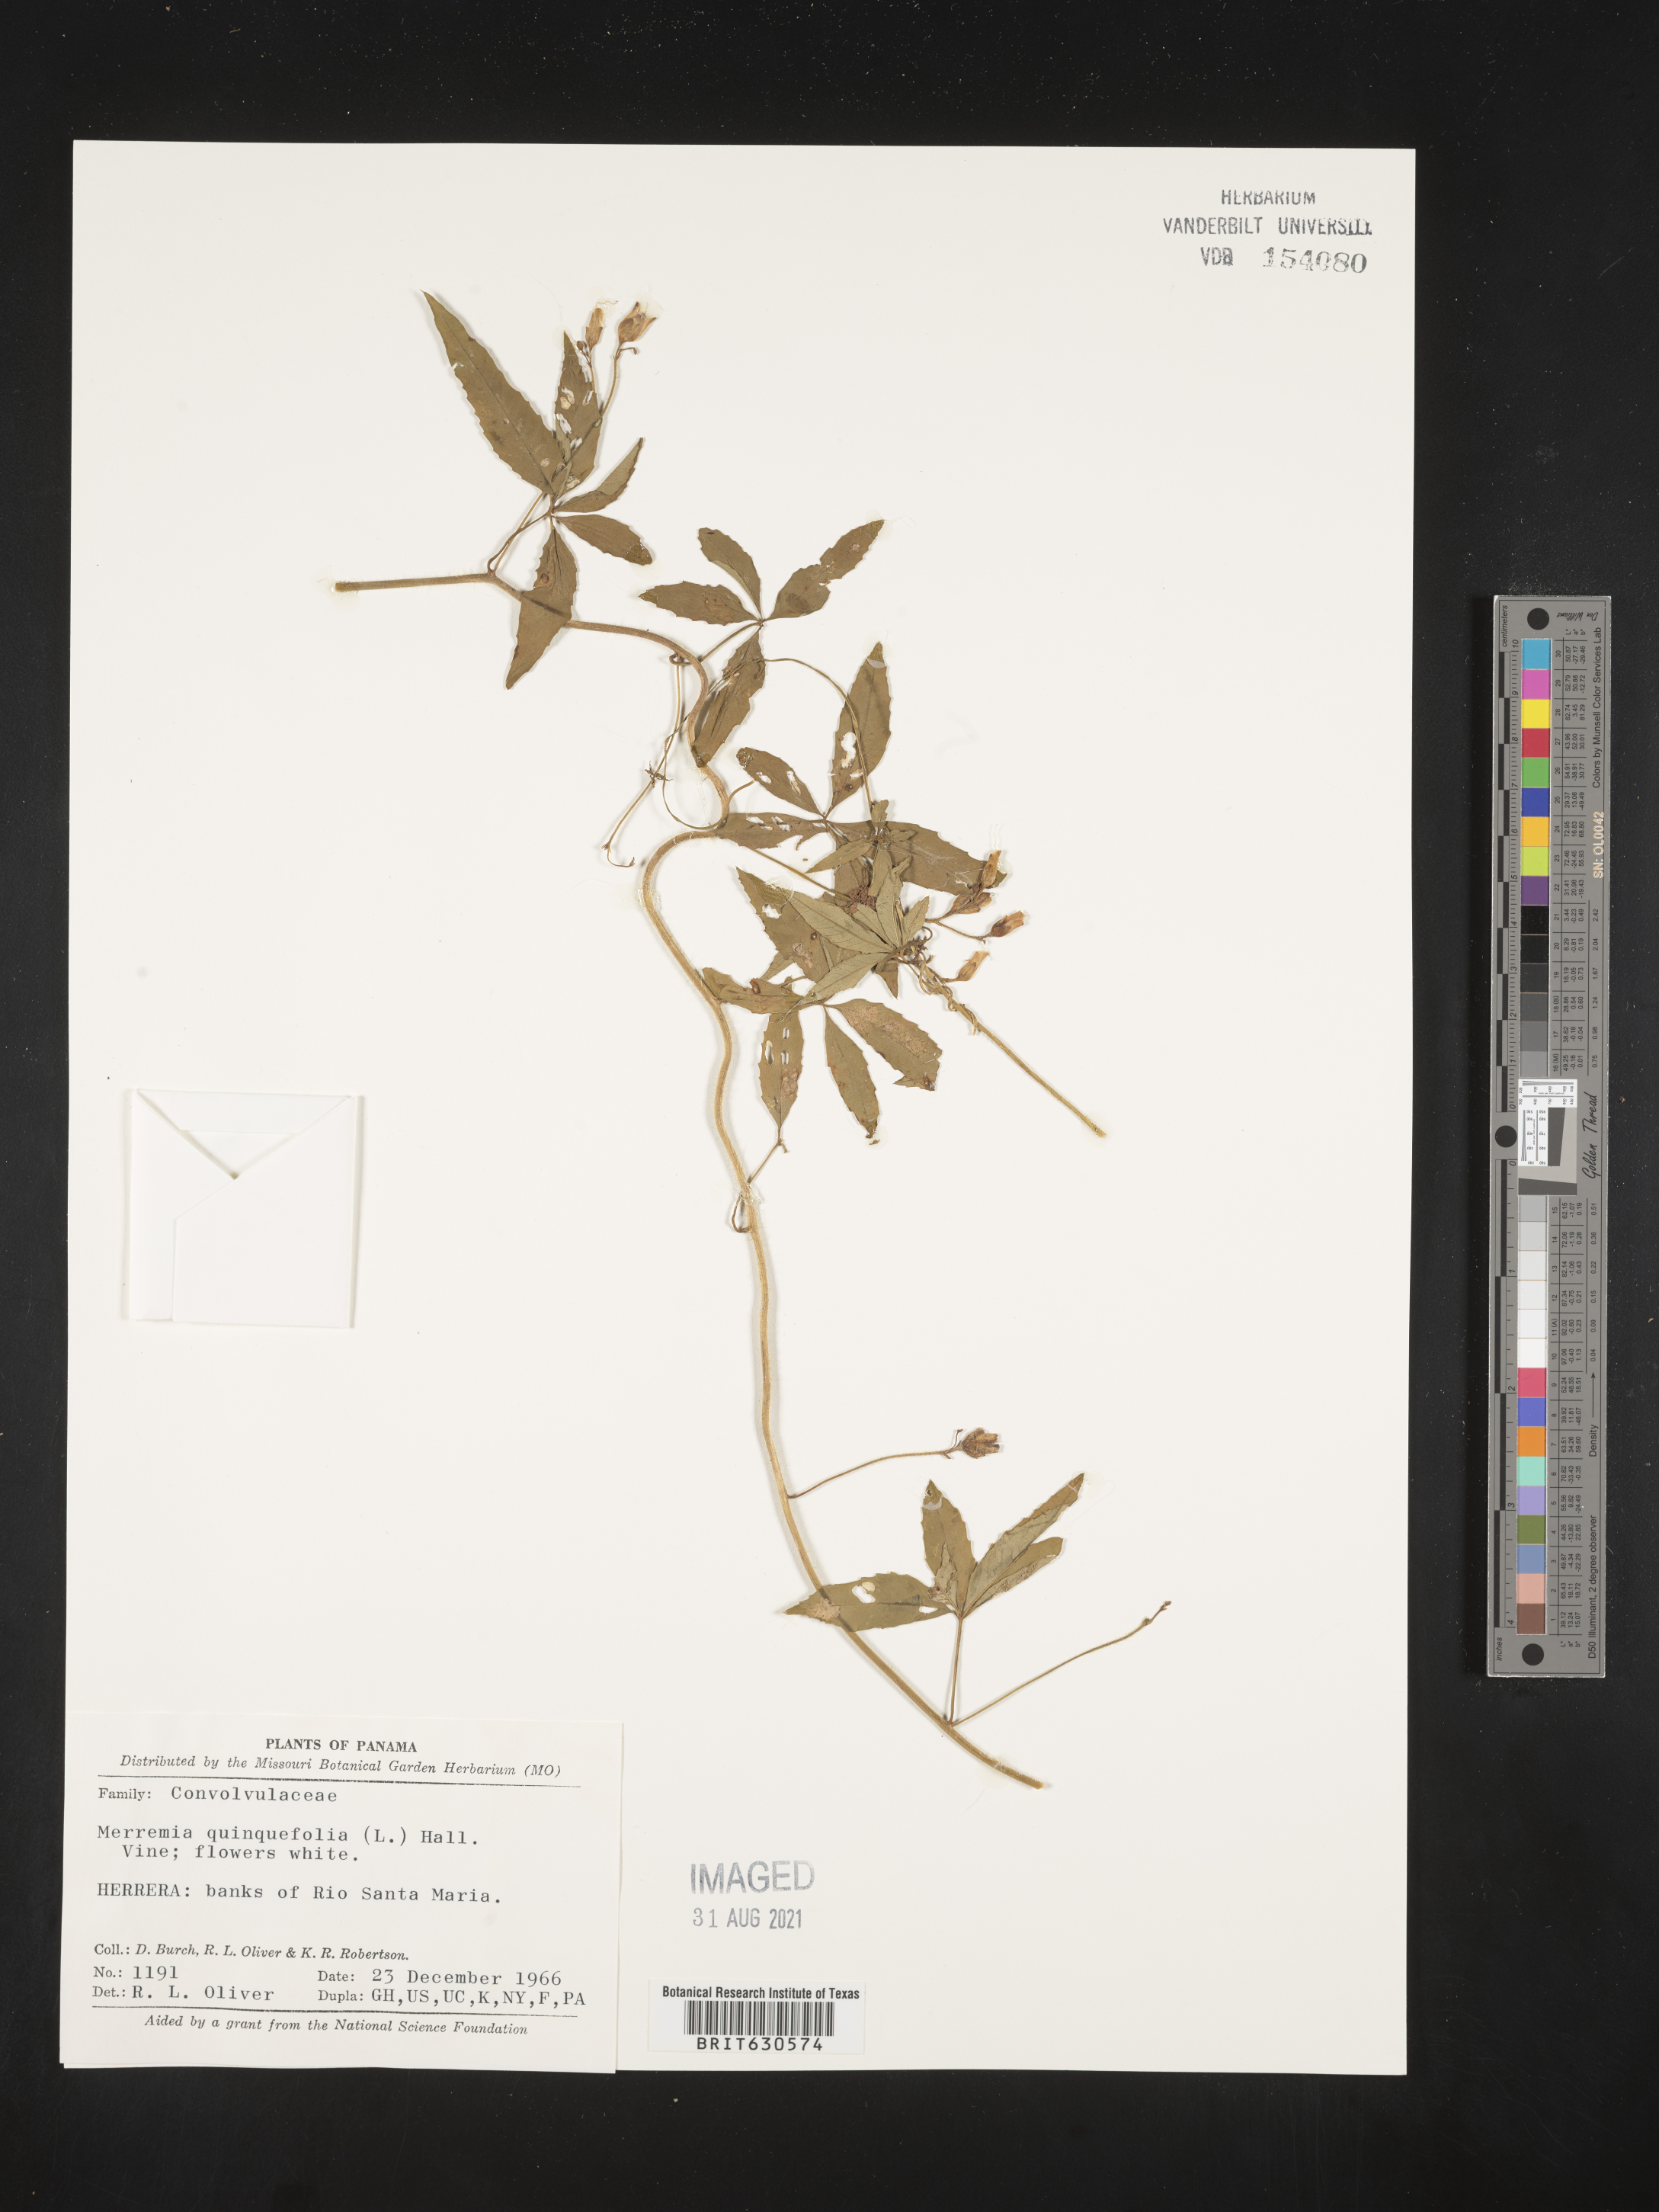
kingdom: Plantae
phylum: Tracheophyta
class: Magnoliopsida
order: Solanales
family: Convolvulaceae
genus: Distimake
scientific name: Distimake quinquefolius
